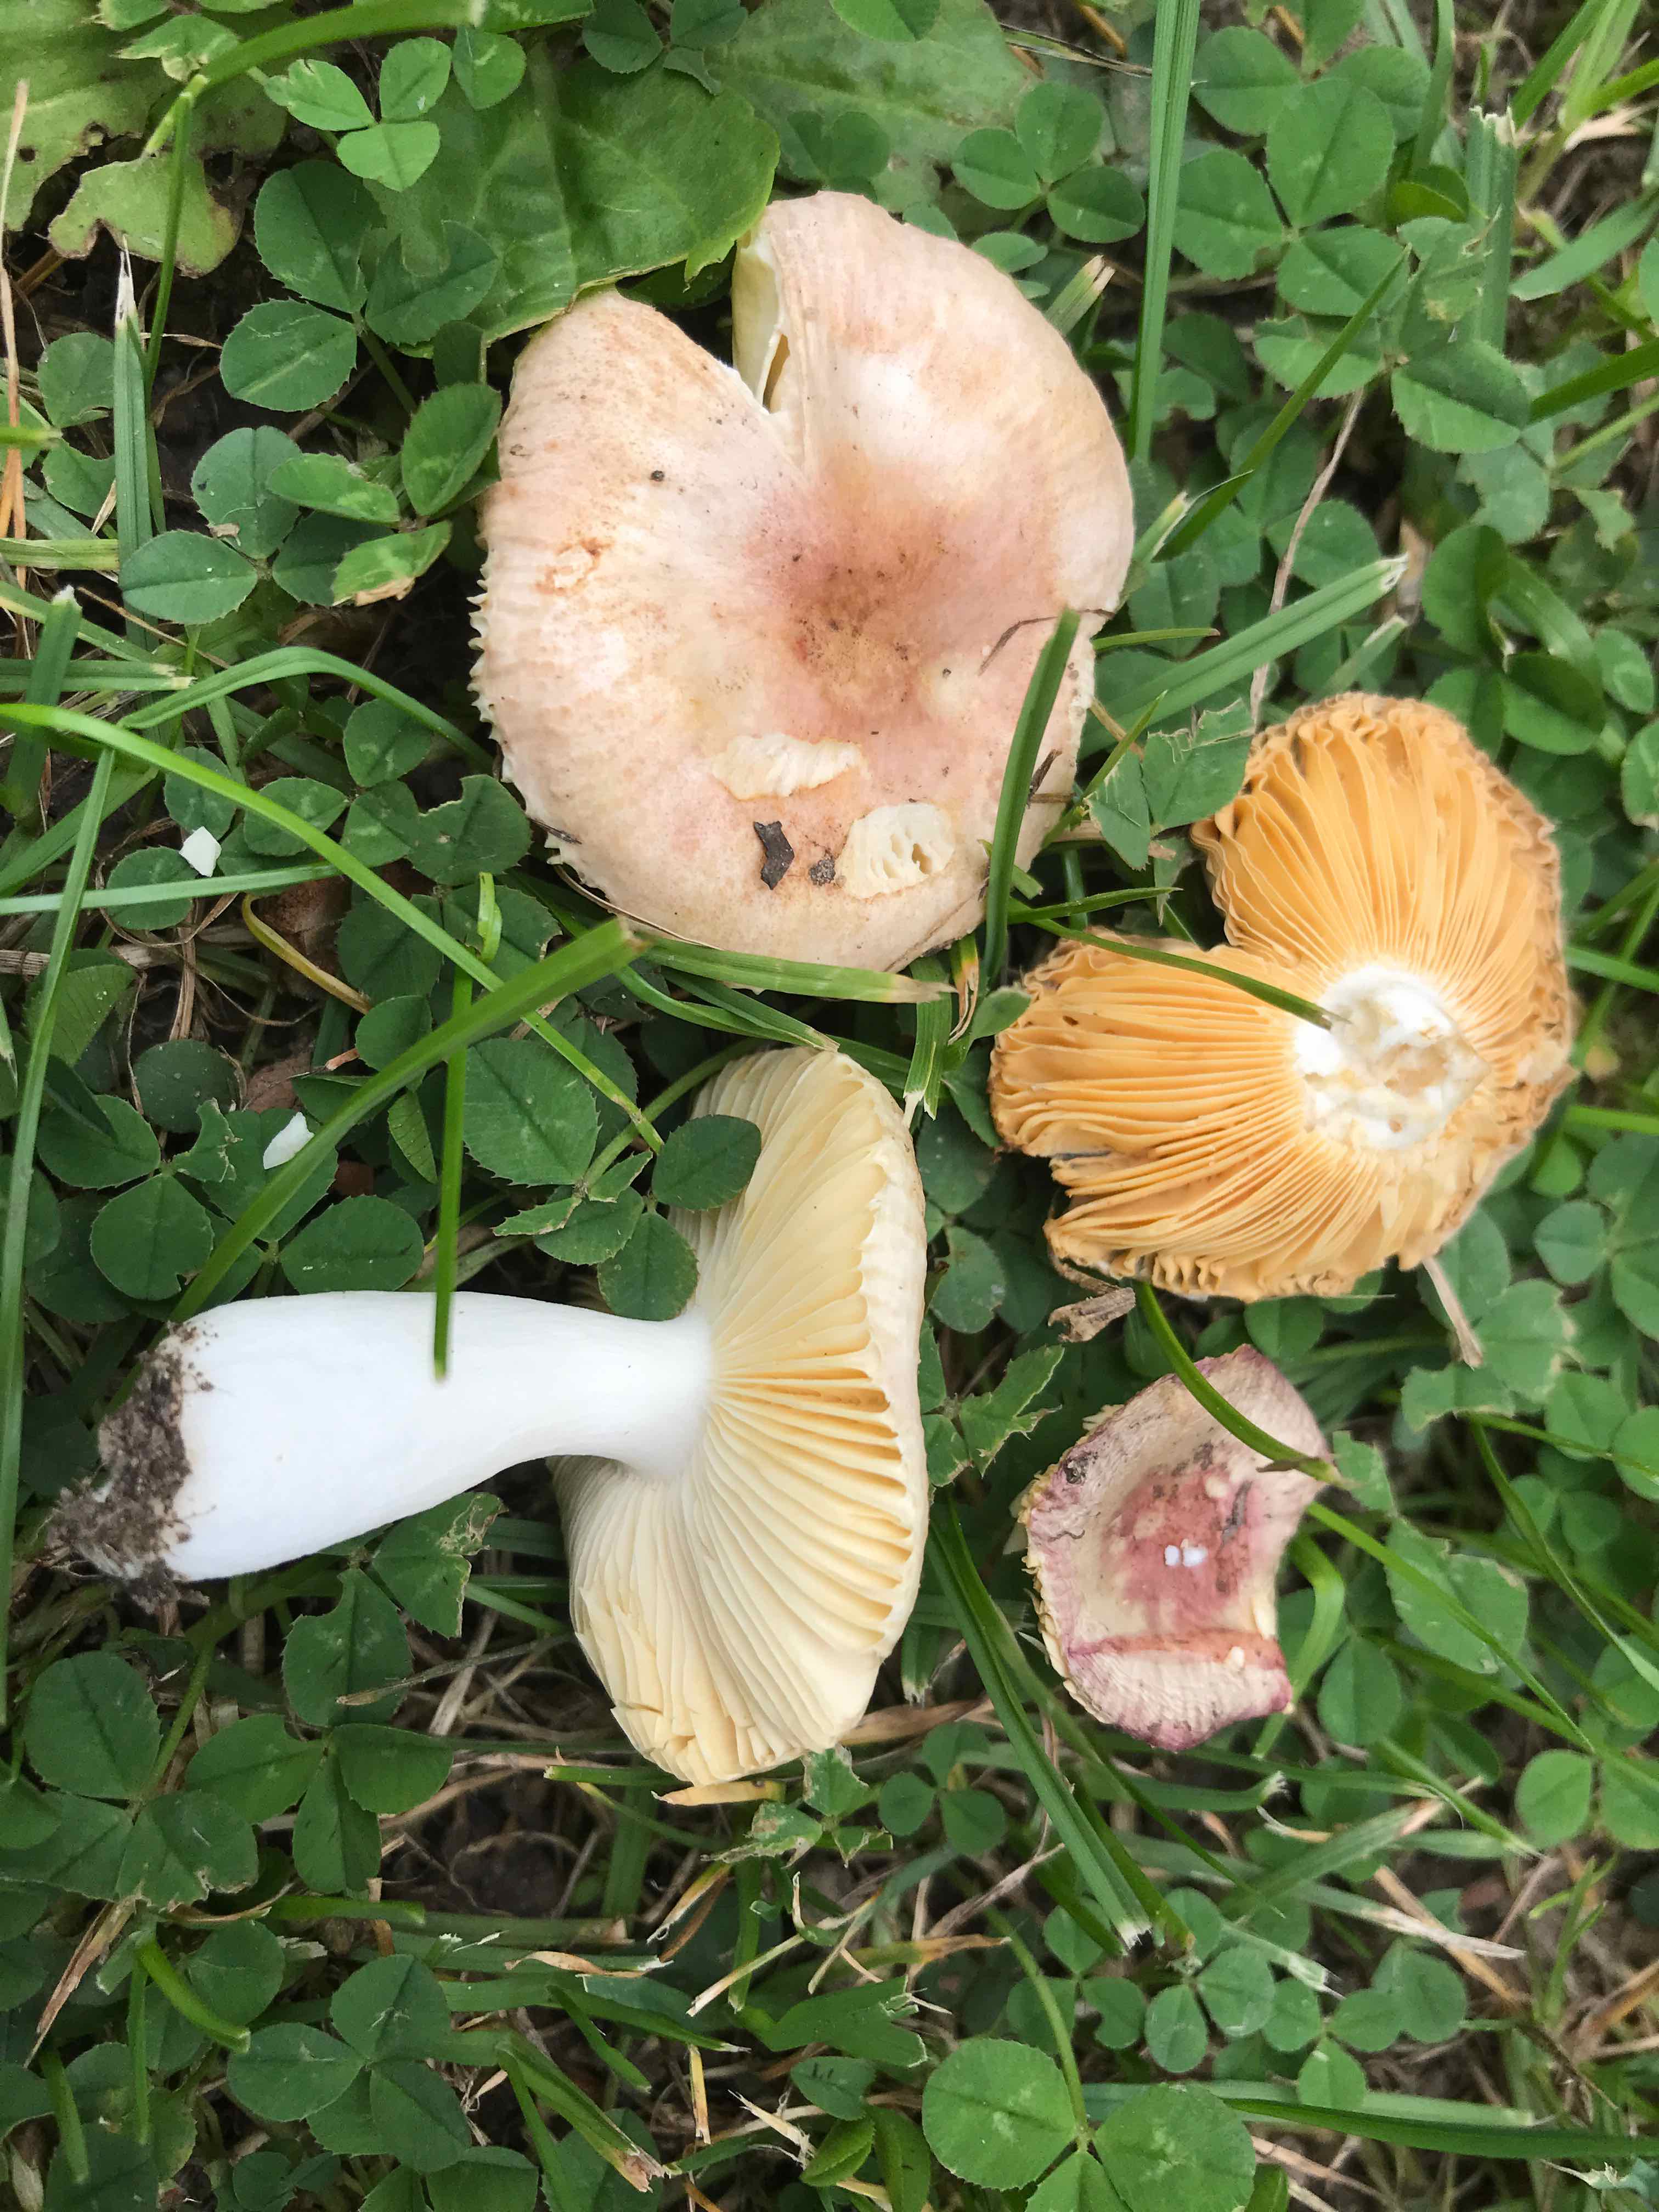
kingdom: Fungi
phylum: Basidiomycota
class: Agaricomycetes
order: Russulales
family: Russulaceae
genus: Russula
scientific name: Russula odorata
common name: duft-skørhat
